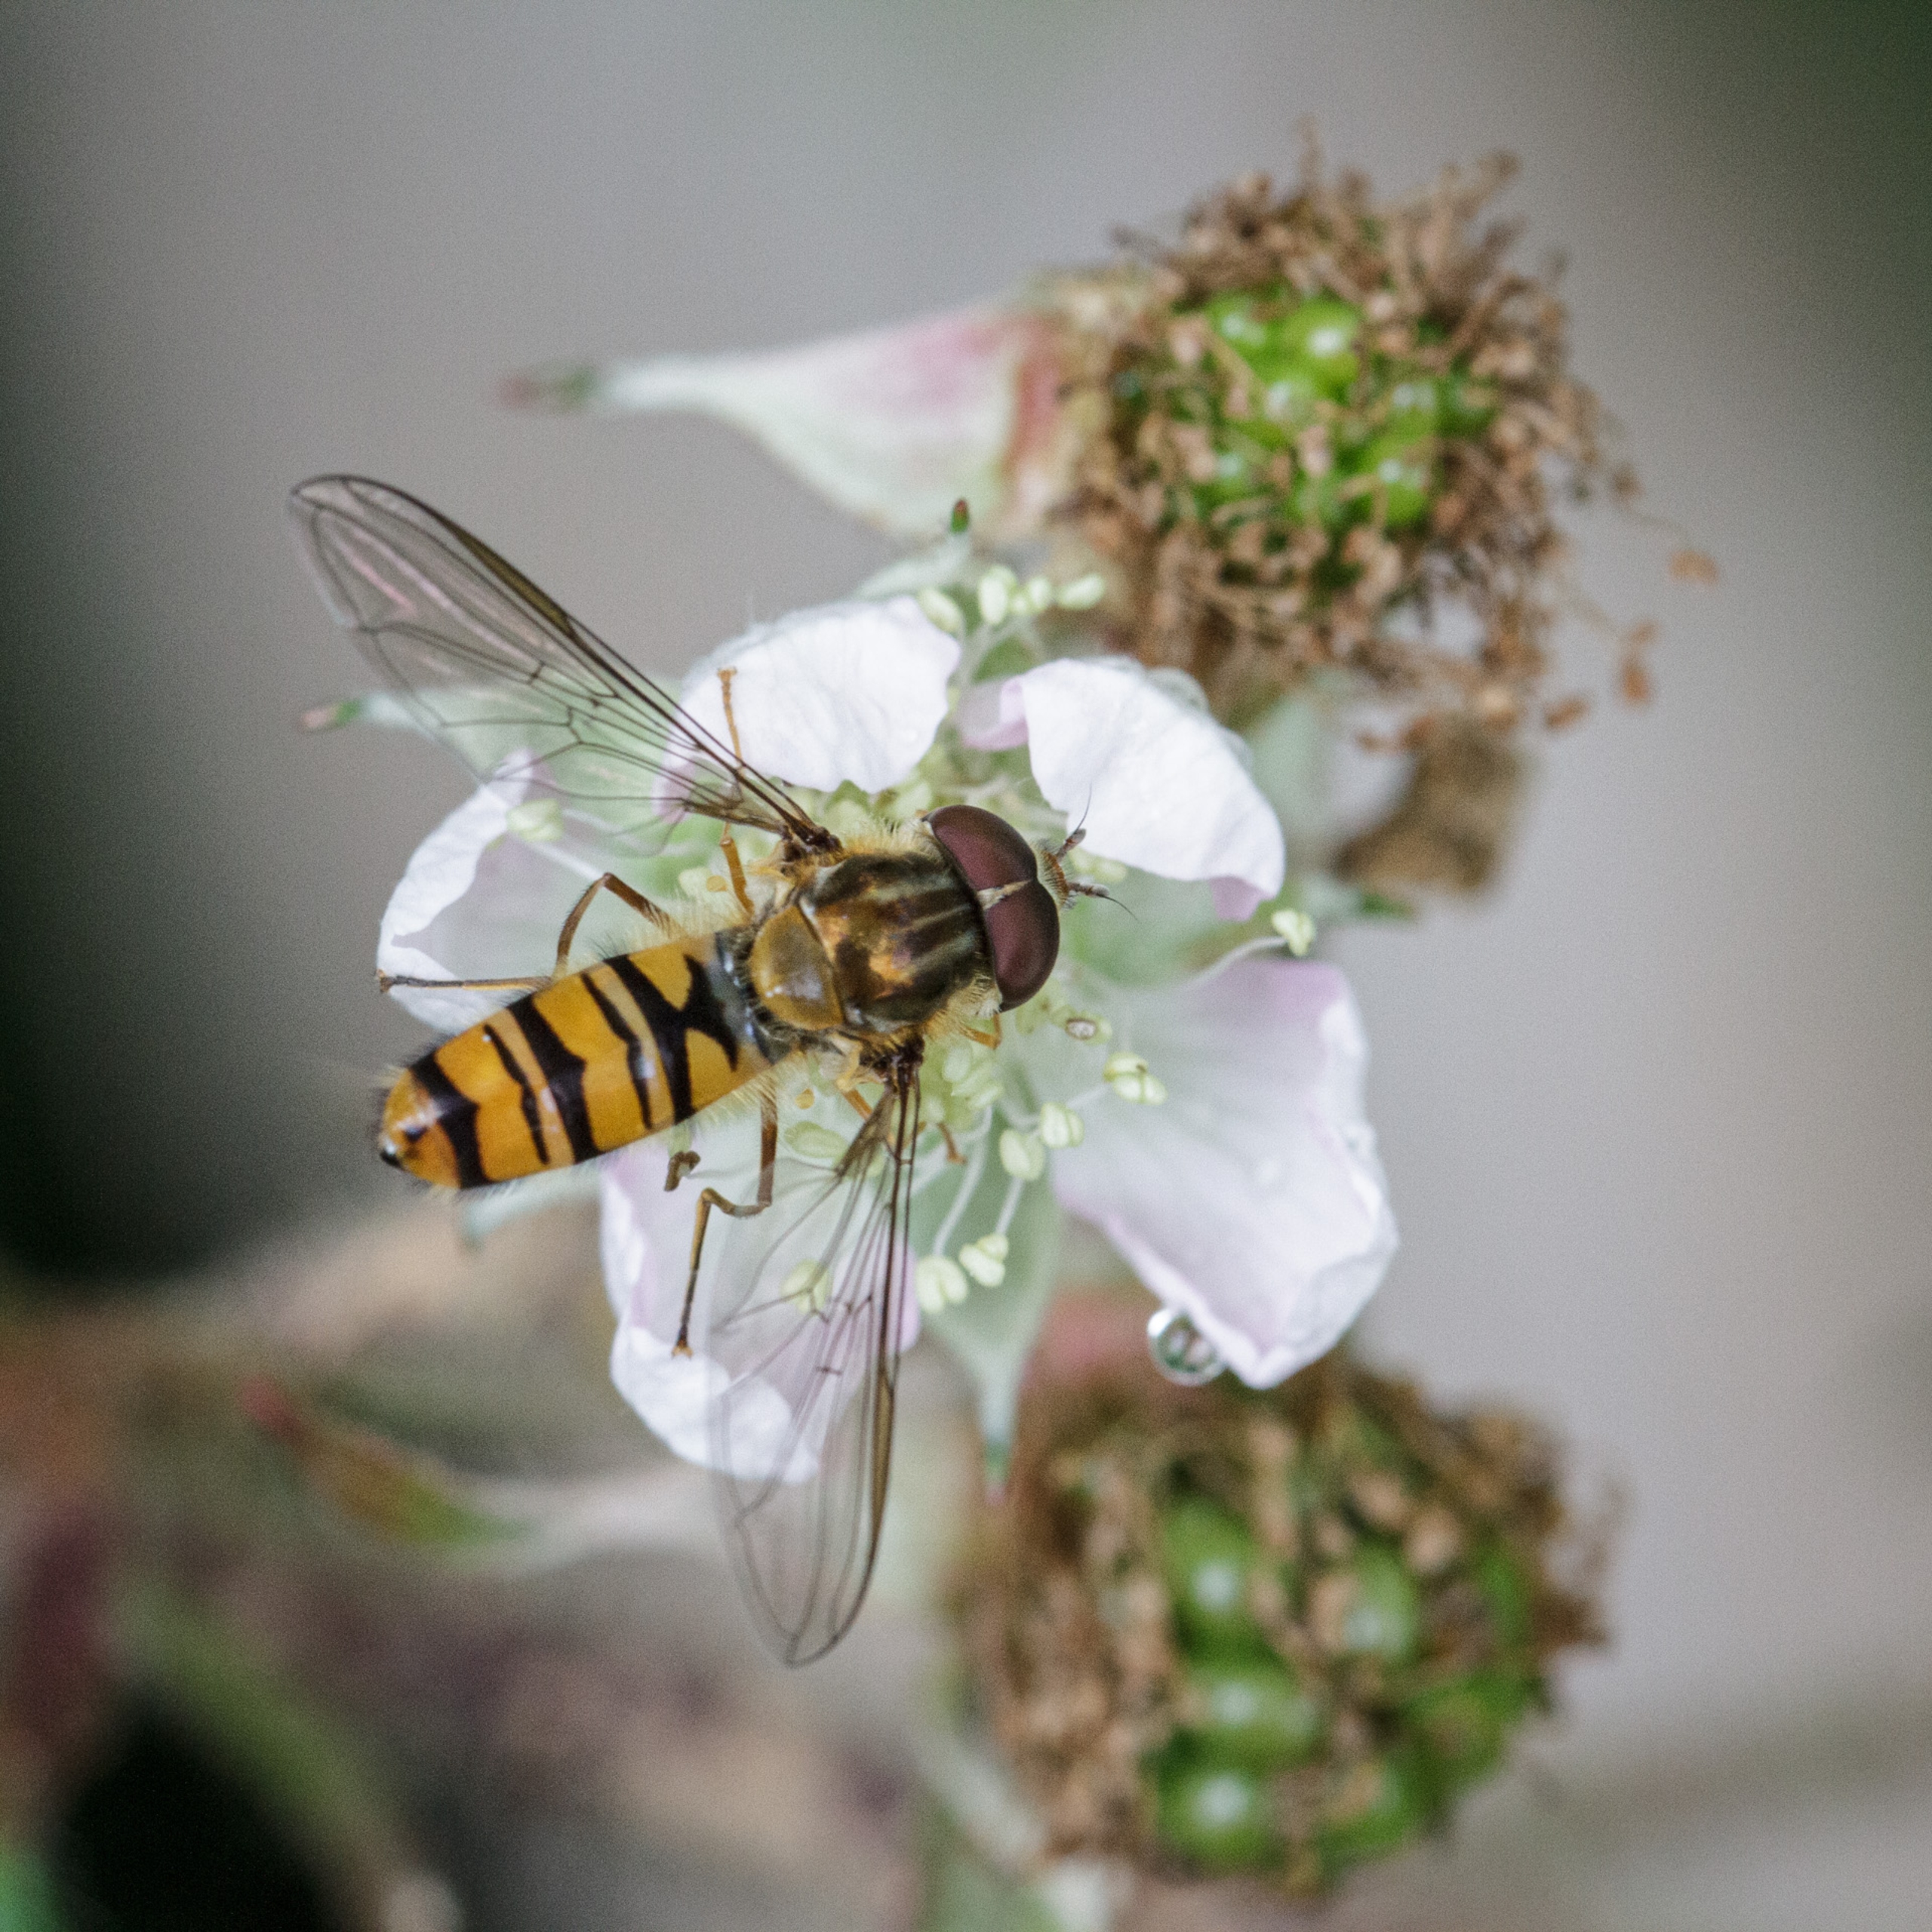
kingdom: Animalia
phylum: Arthropoda
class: Insecta
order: Diptera
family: Syrphidae
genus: Episyrphus
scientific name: Episyrphus balteatus
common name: Dobbeltbåndet svirreflue
